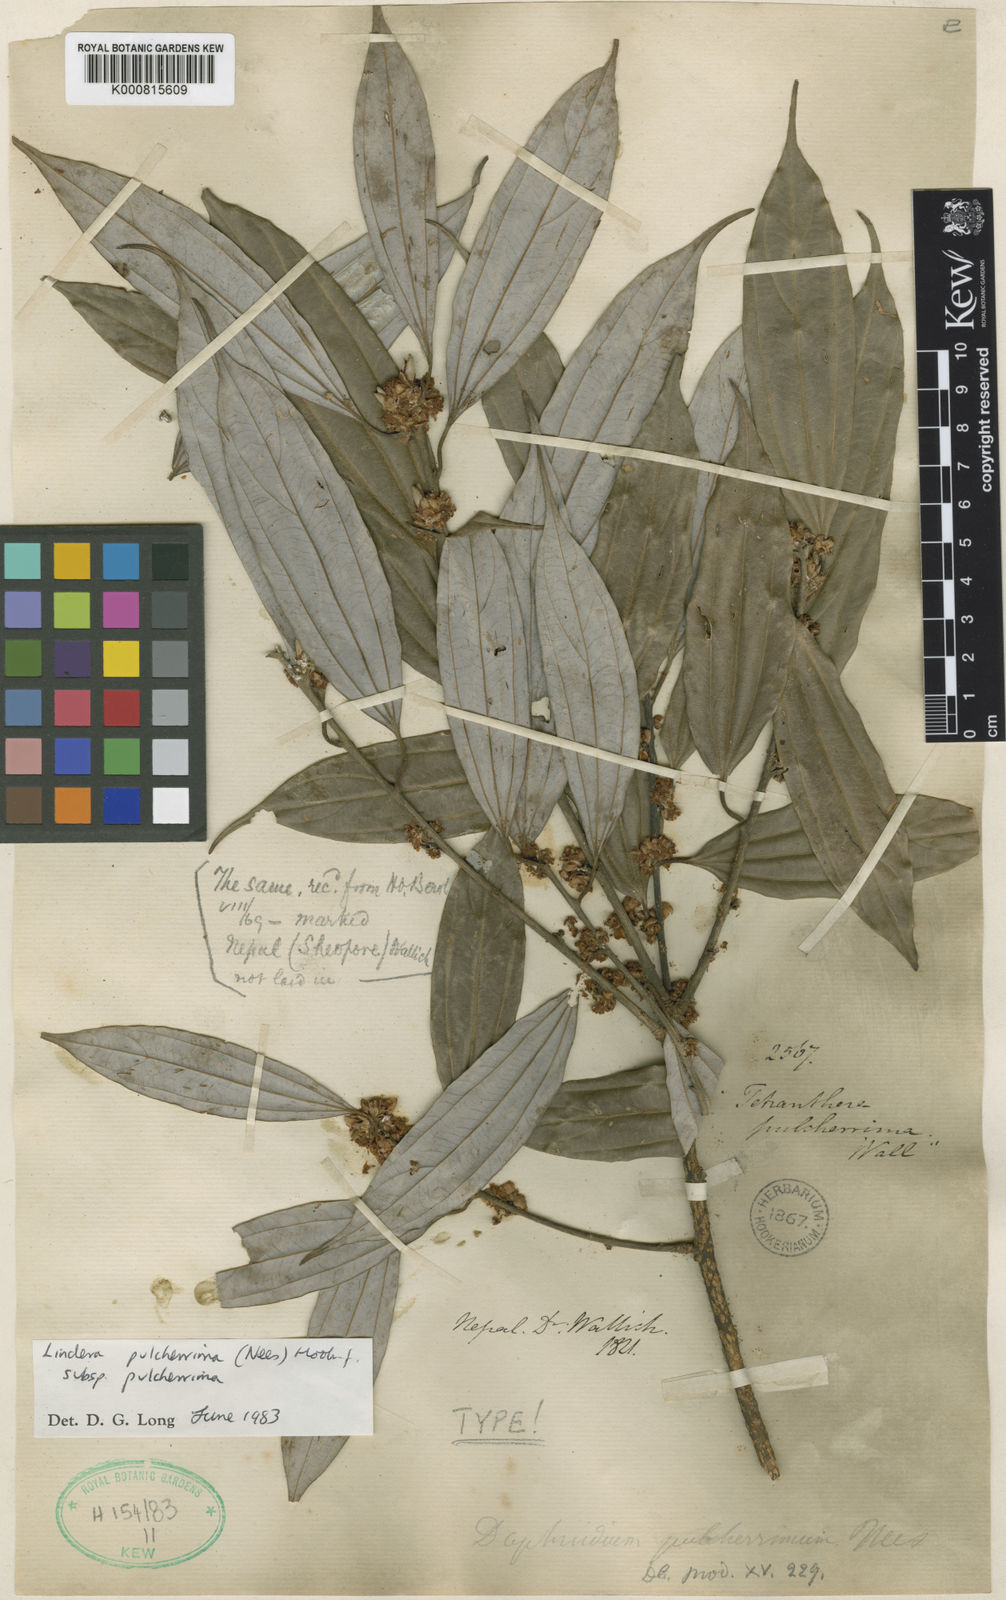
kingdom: Plantae
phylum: Tracheophyta
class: Magnoliopsida
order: Laurales
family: Lauraceae
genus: Lindera
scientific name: Lindera pulcherrima
